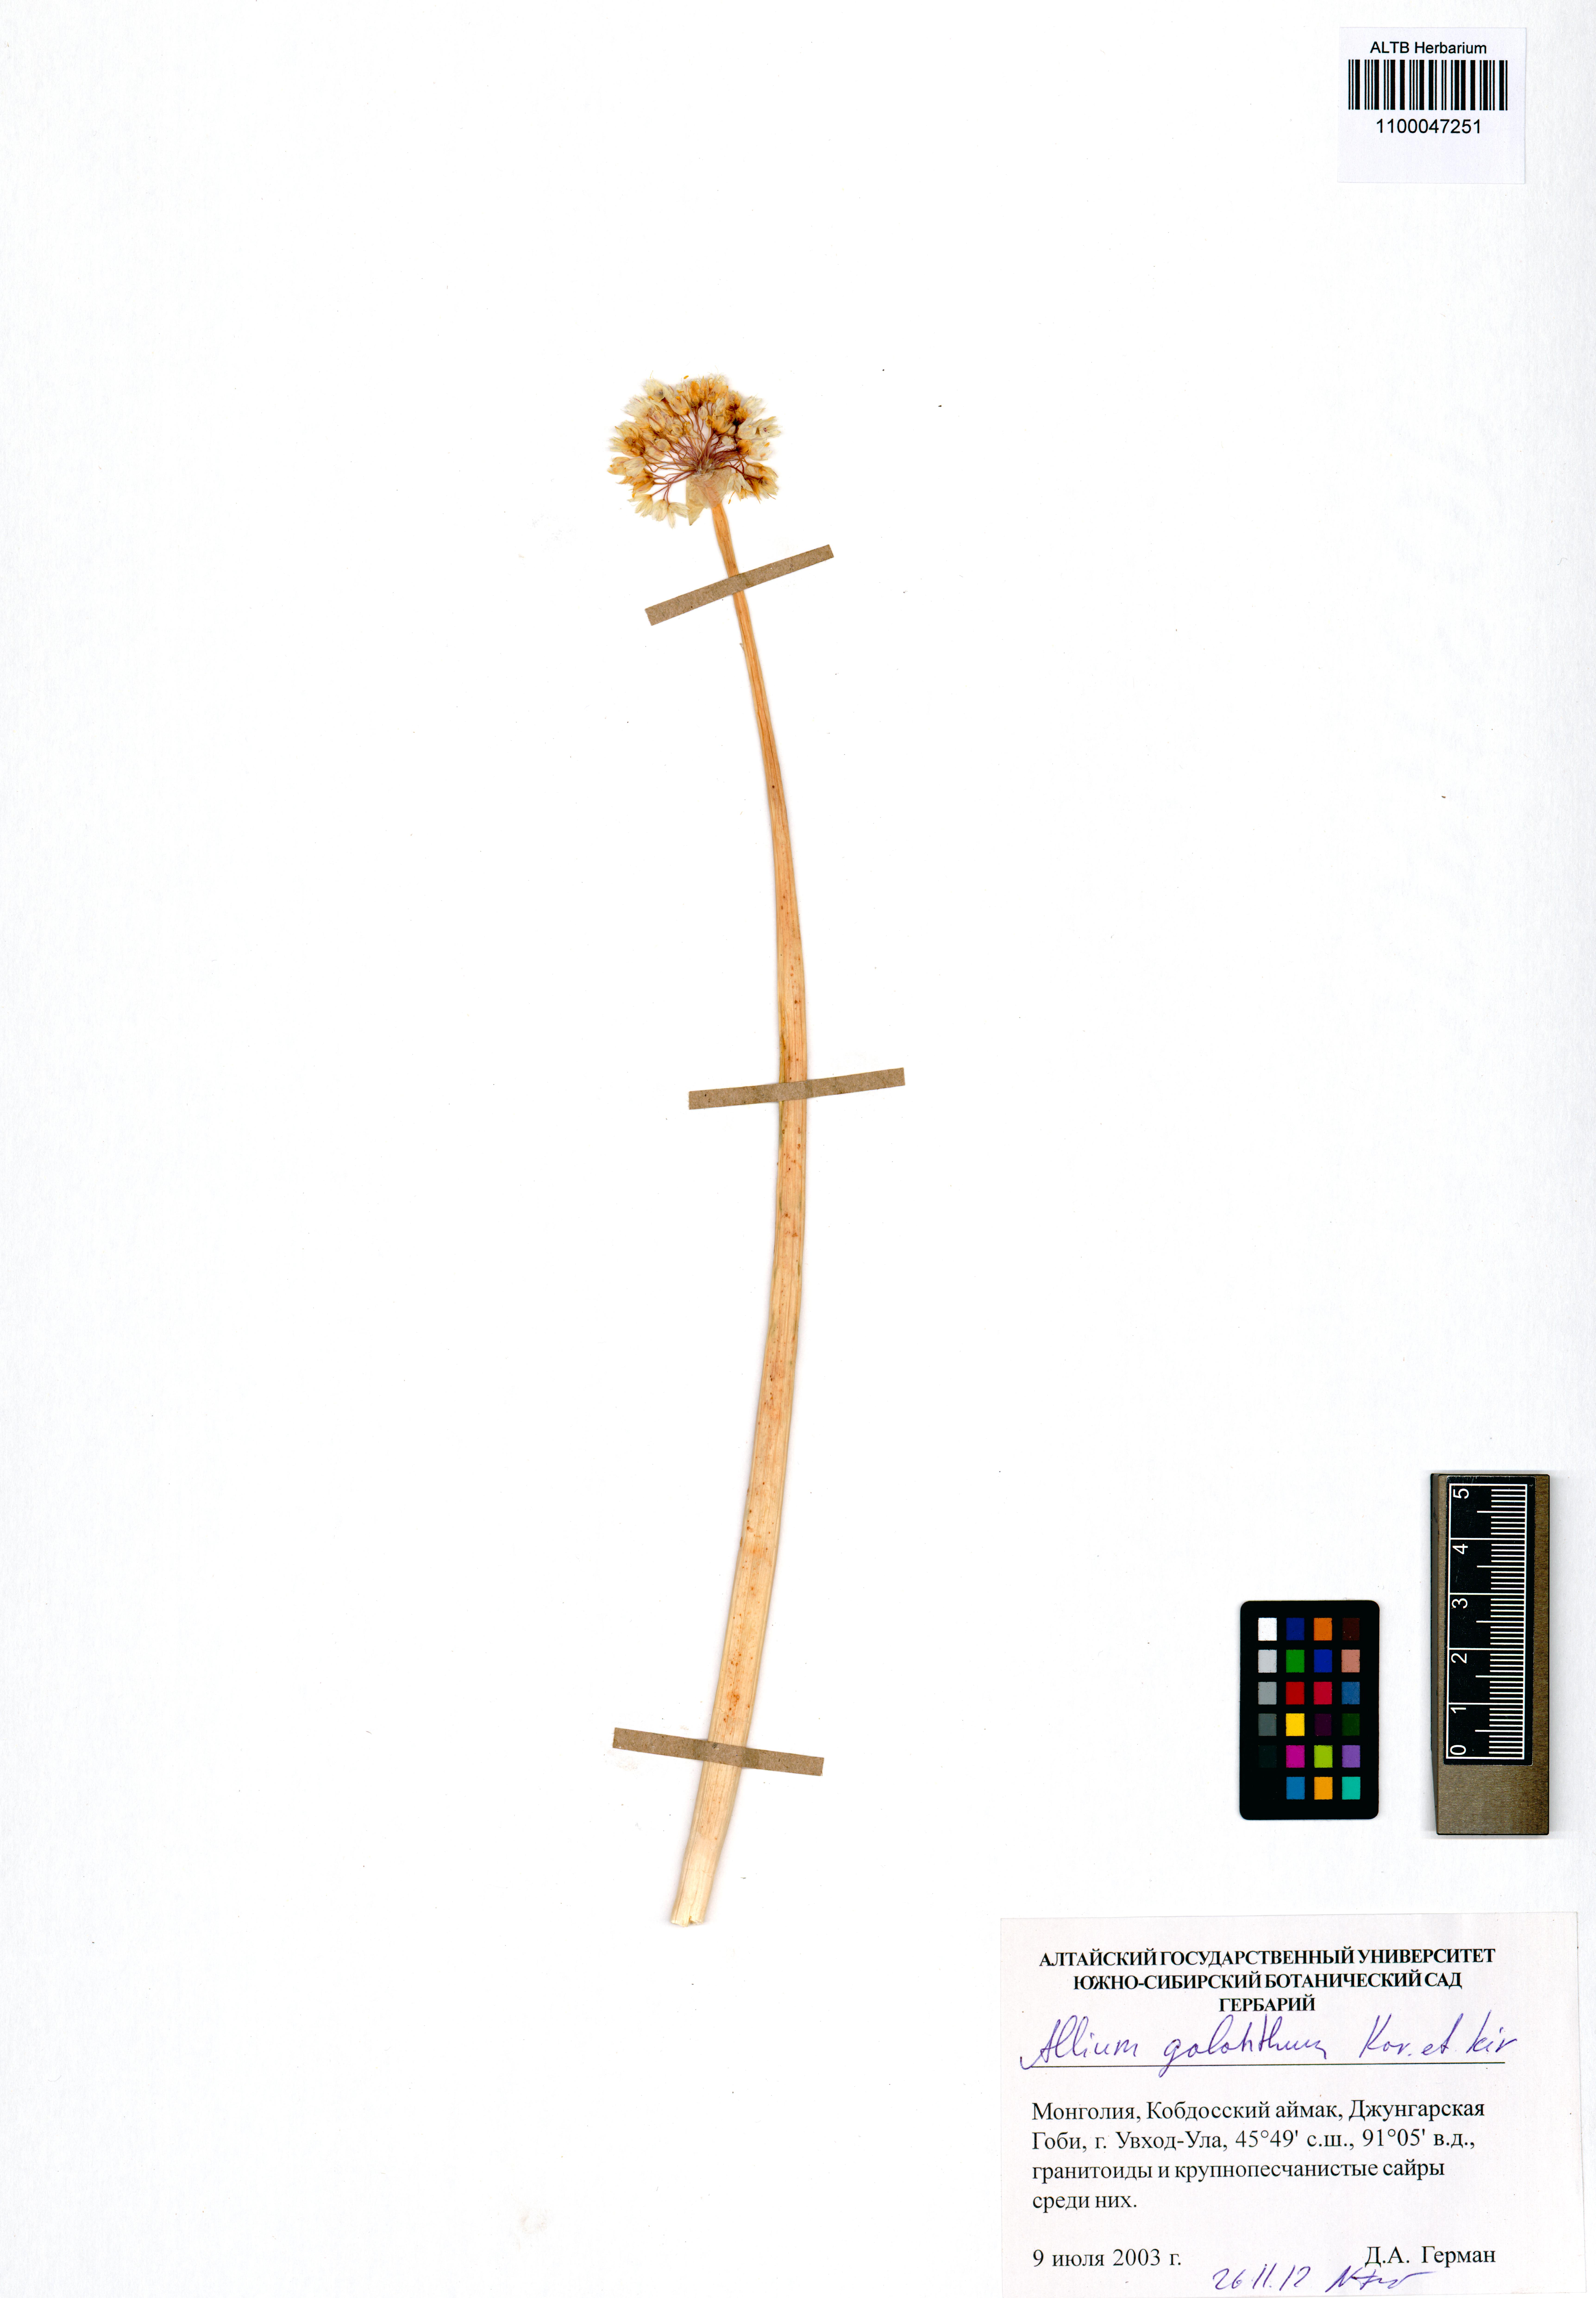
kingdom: Plantae
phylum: Tracheophyta
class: Liliopsida
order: Asparagales
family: Amaryllidaceae
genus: Allium
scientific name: Allium galanthum
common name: Snowdrop onion
